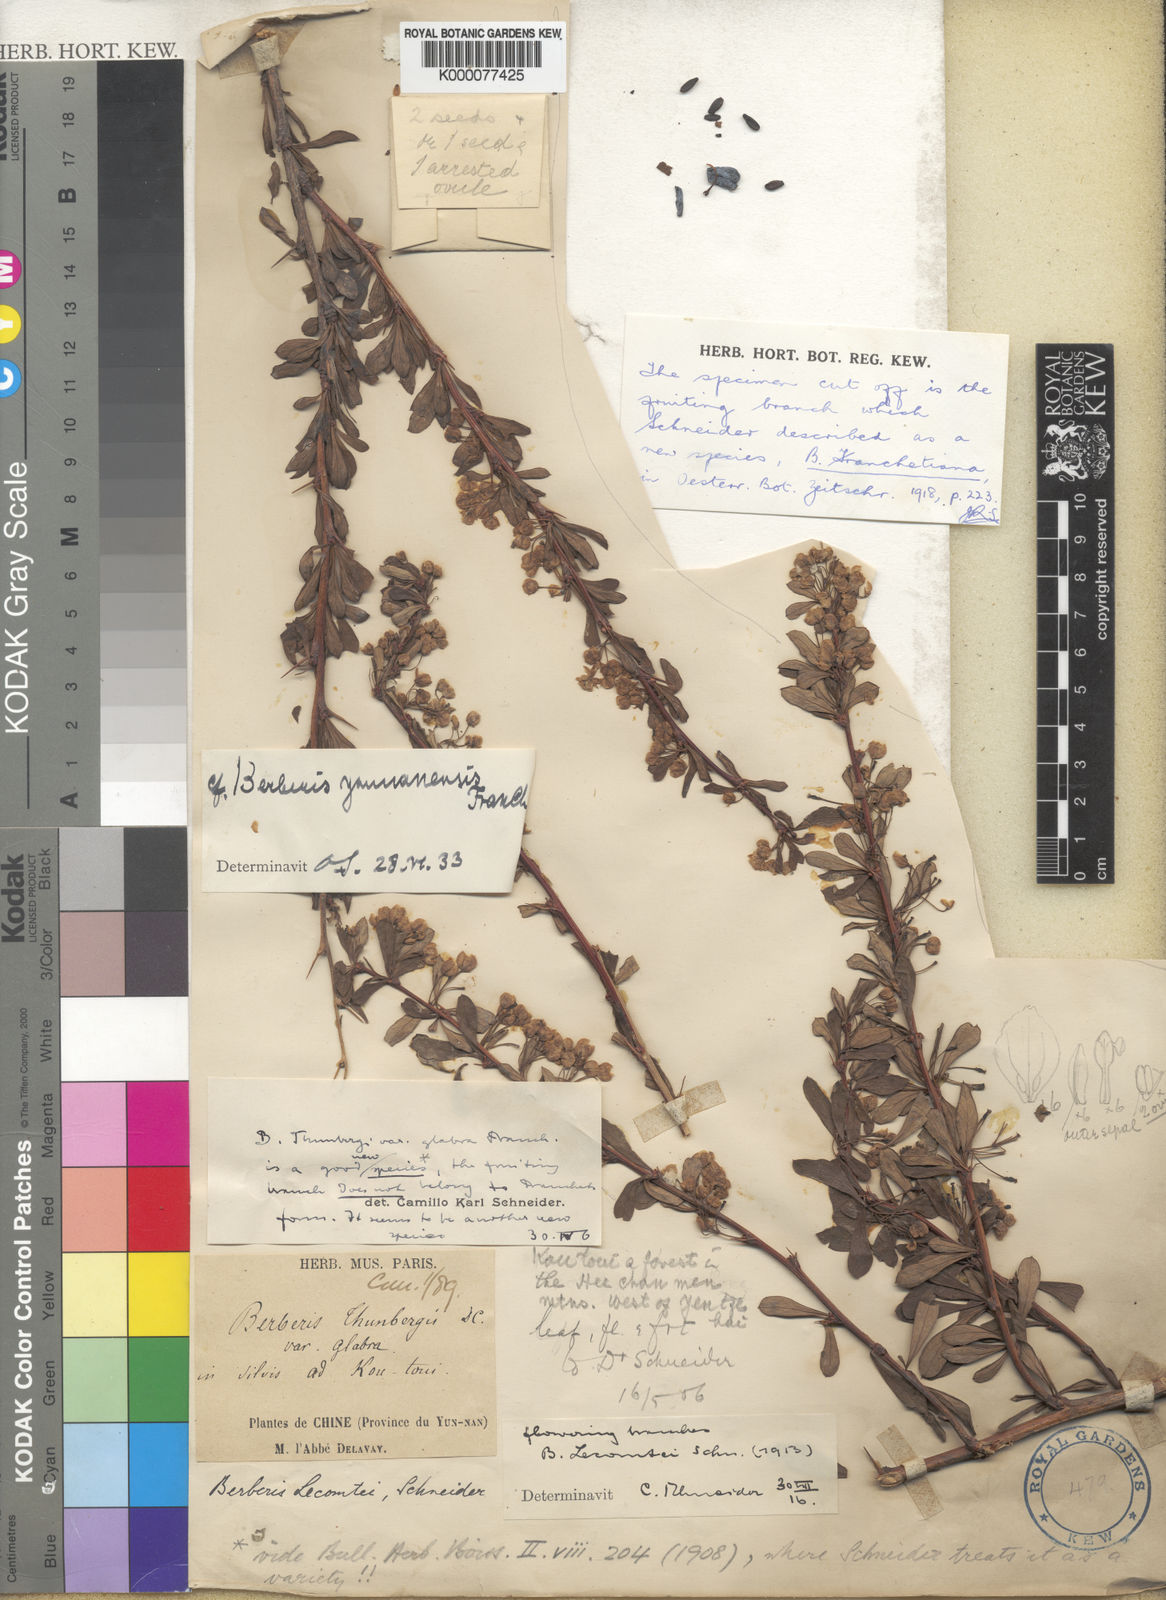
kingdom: Plantae
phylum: Tracheophyta
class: Magnoliopsida
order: Ranunculales
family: Berberidaceae
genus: Berberis
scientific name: Berberis yunnanensis
